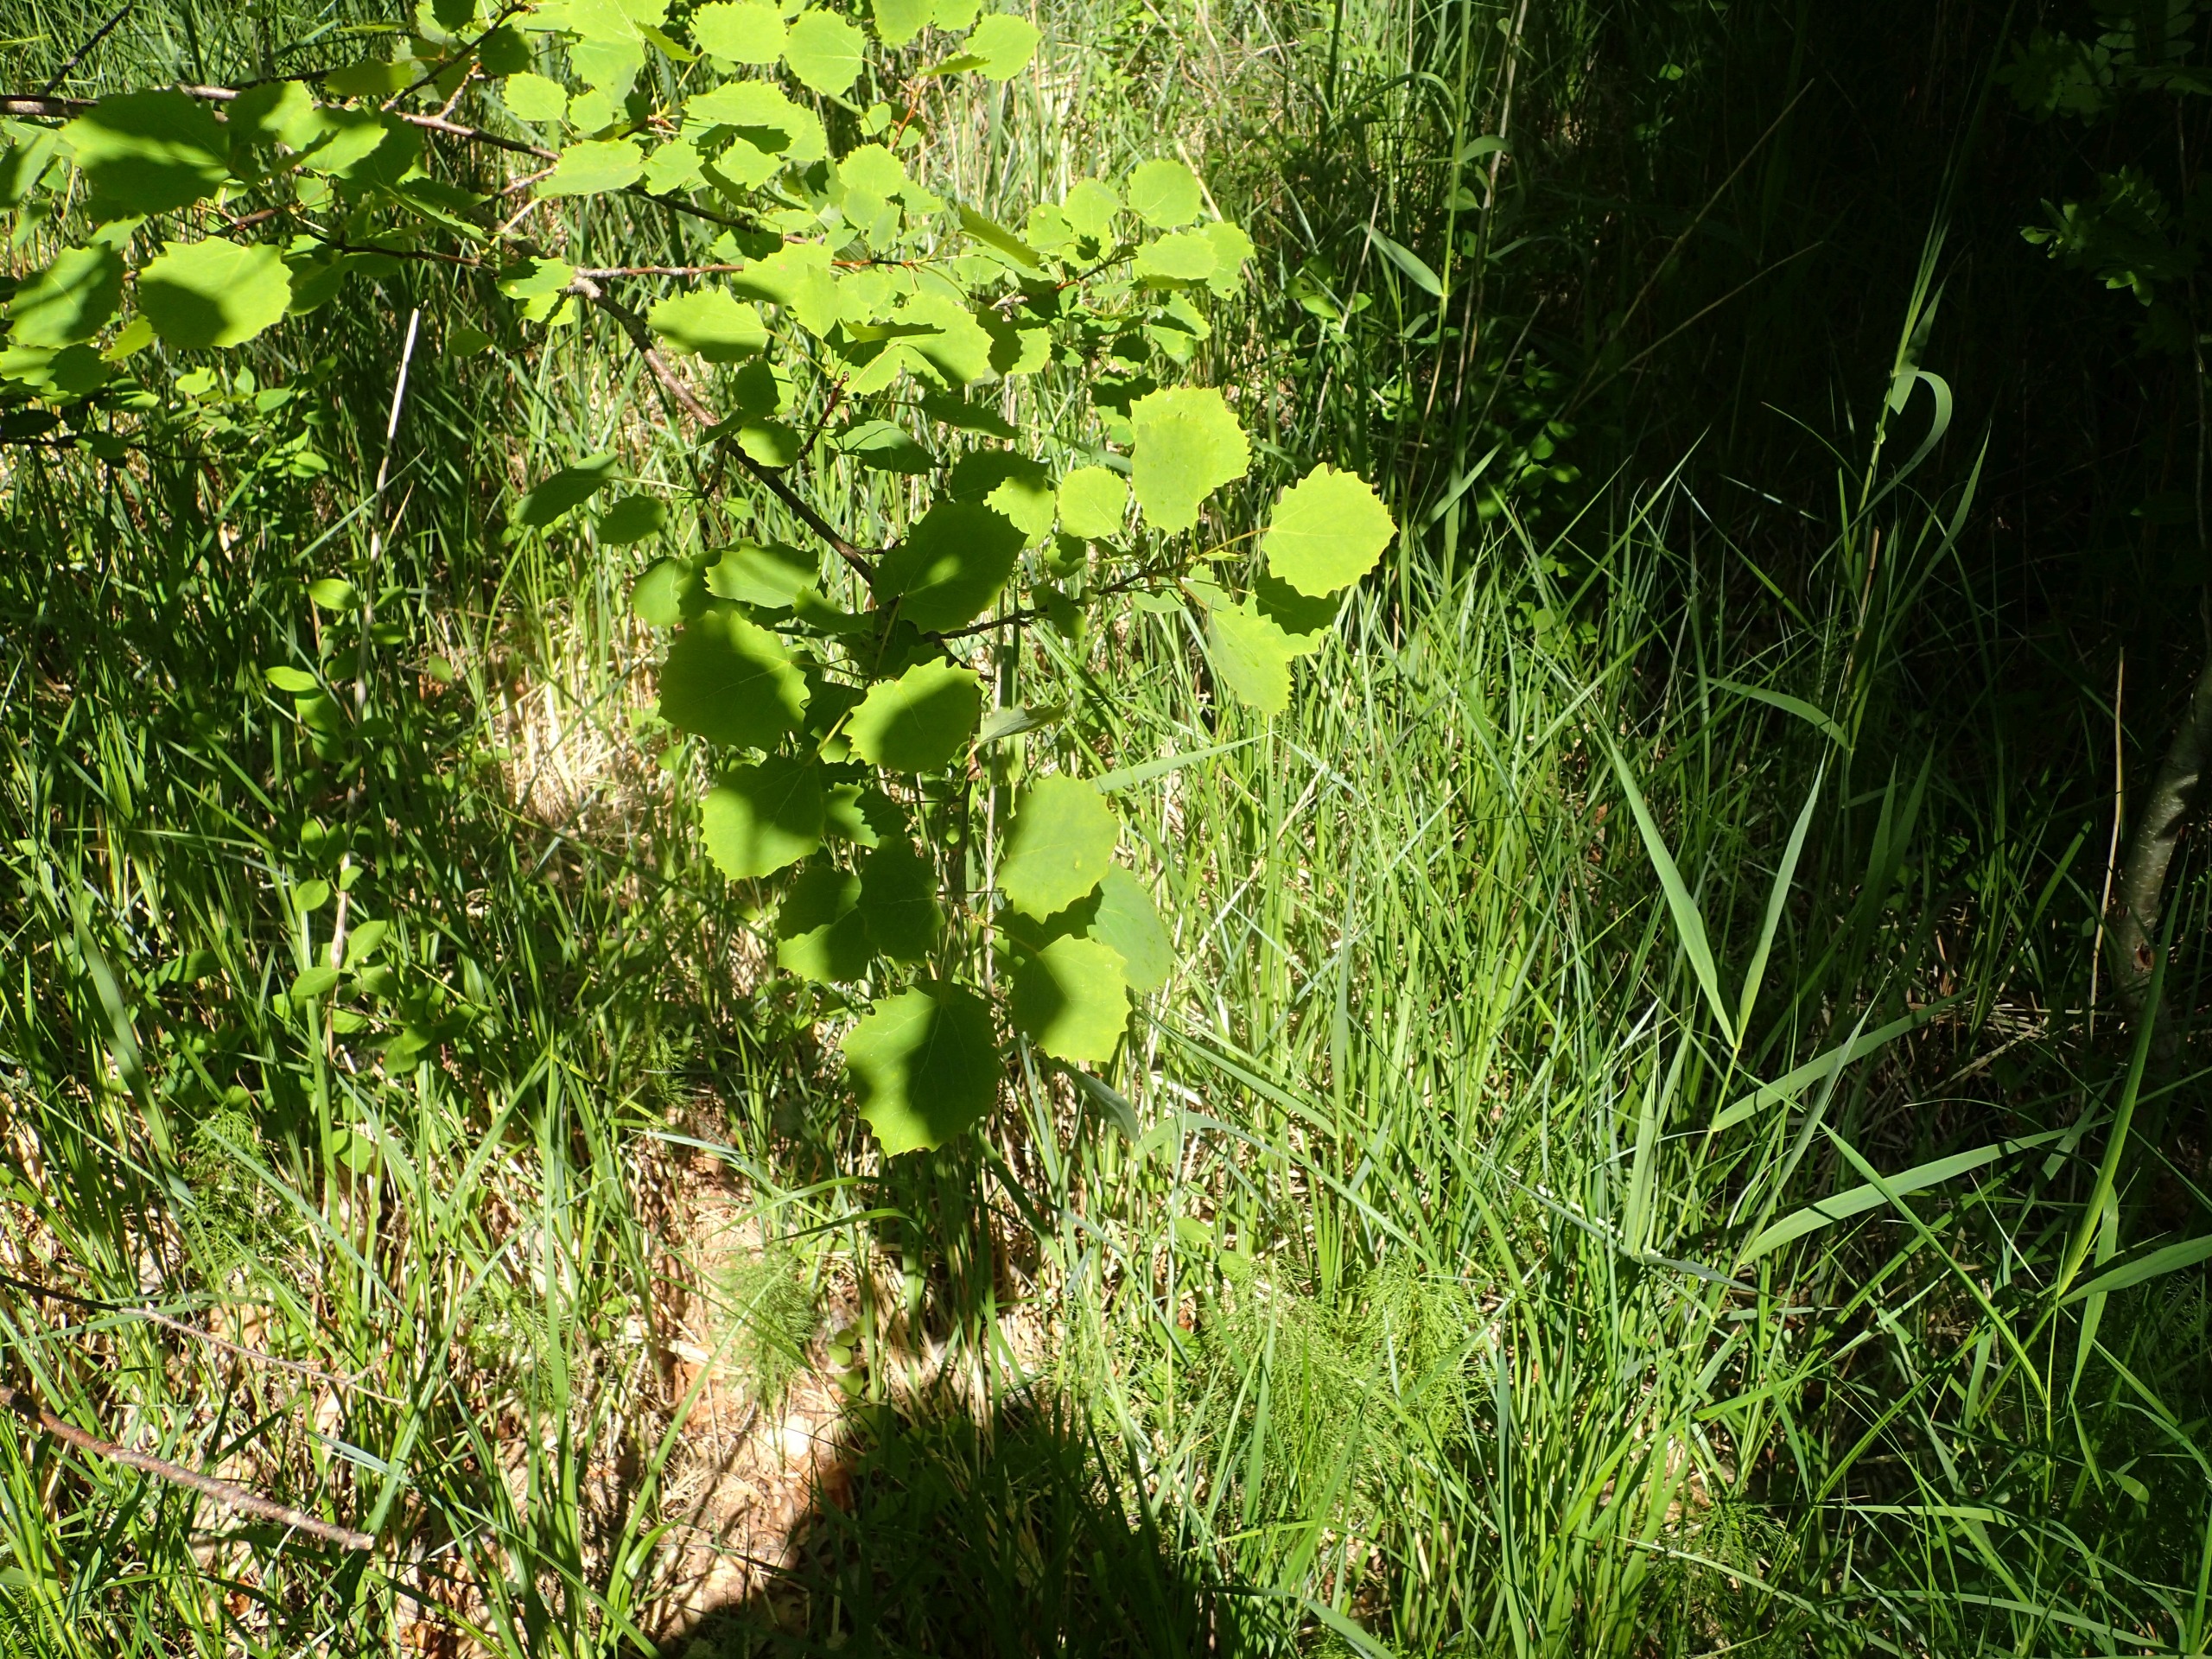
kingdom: Plantae
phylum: Tracheophyta
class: Magnoliopsida
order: Malpighiales
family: Salicaceae
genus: Populus
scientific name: Populus tremula
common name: Bævreasp
